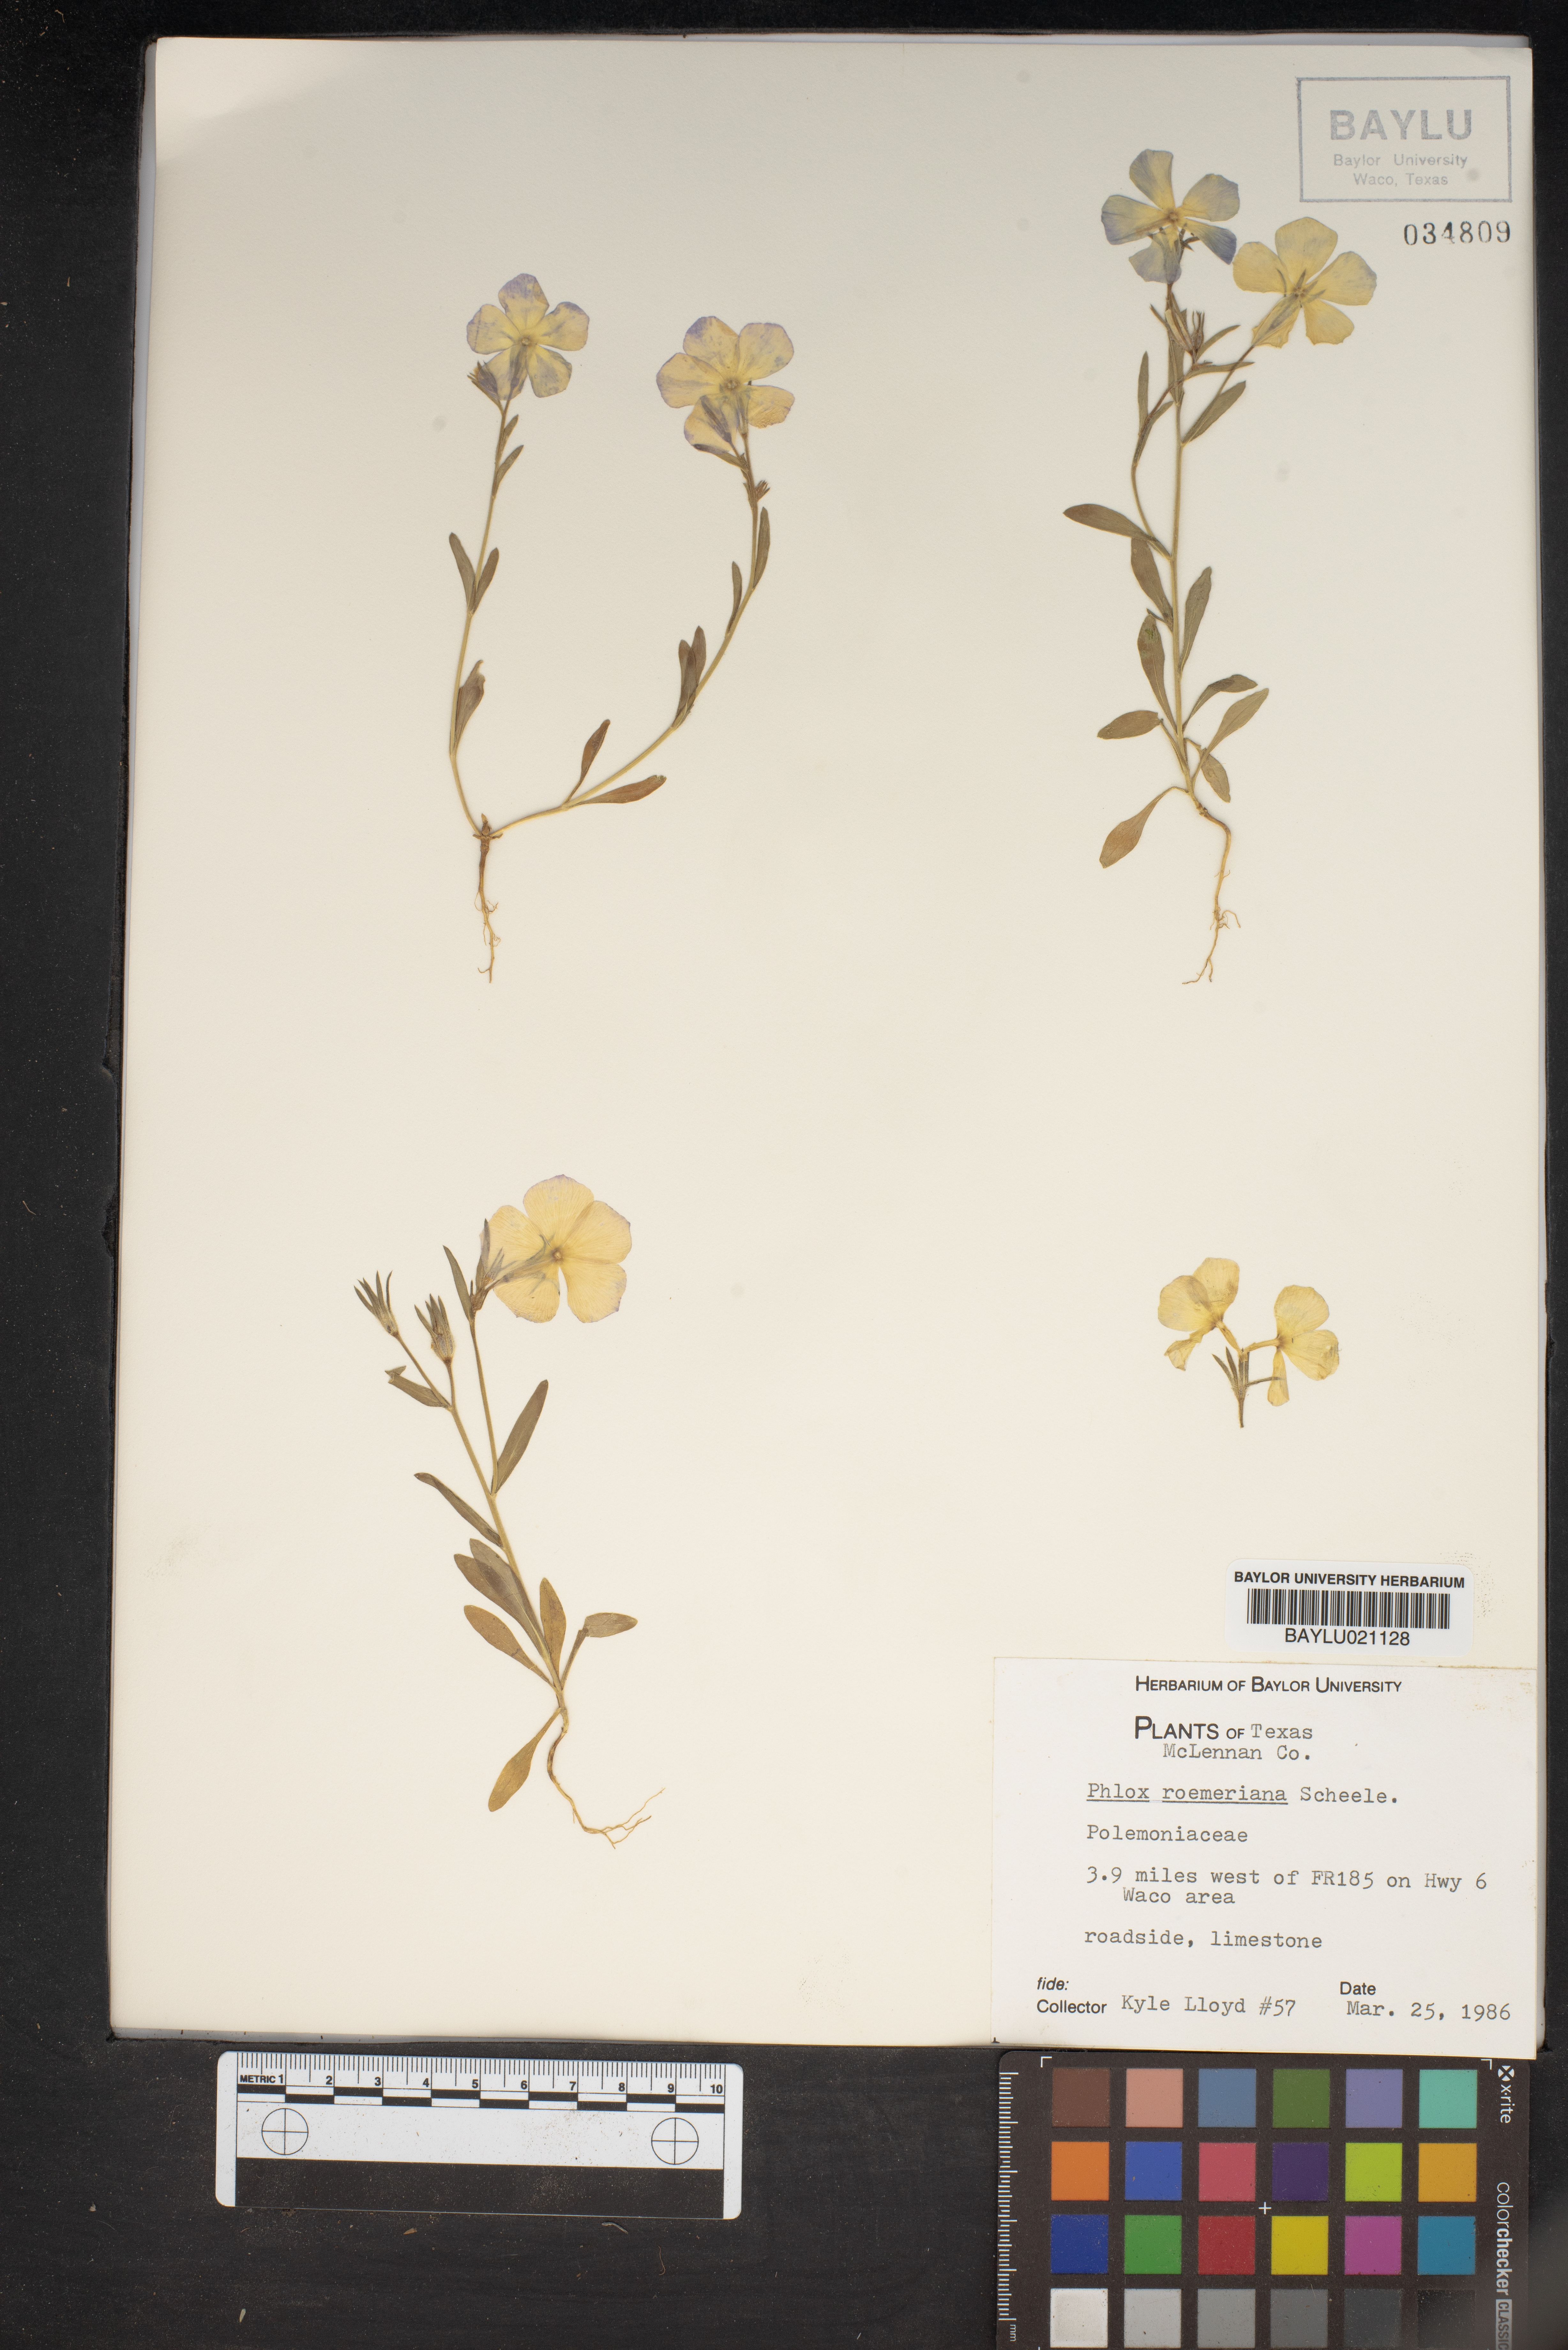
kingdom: Plantae
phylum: Tracheophyta
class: Magnoliopsida
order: Ericales
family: Polemoniaceae
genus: Phlox
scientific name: Phlox roemeriana
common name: Roemer's phlox
